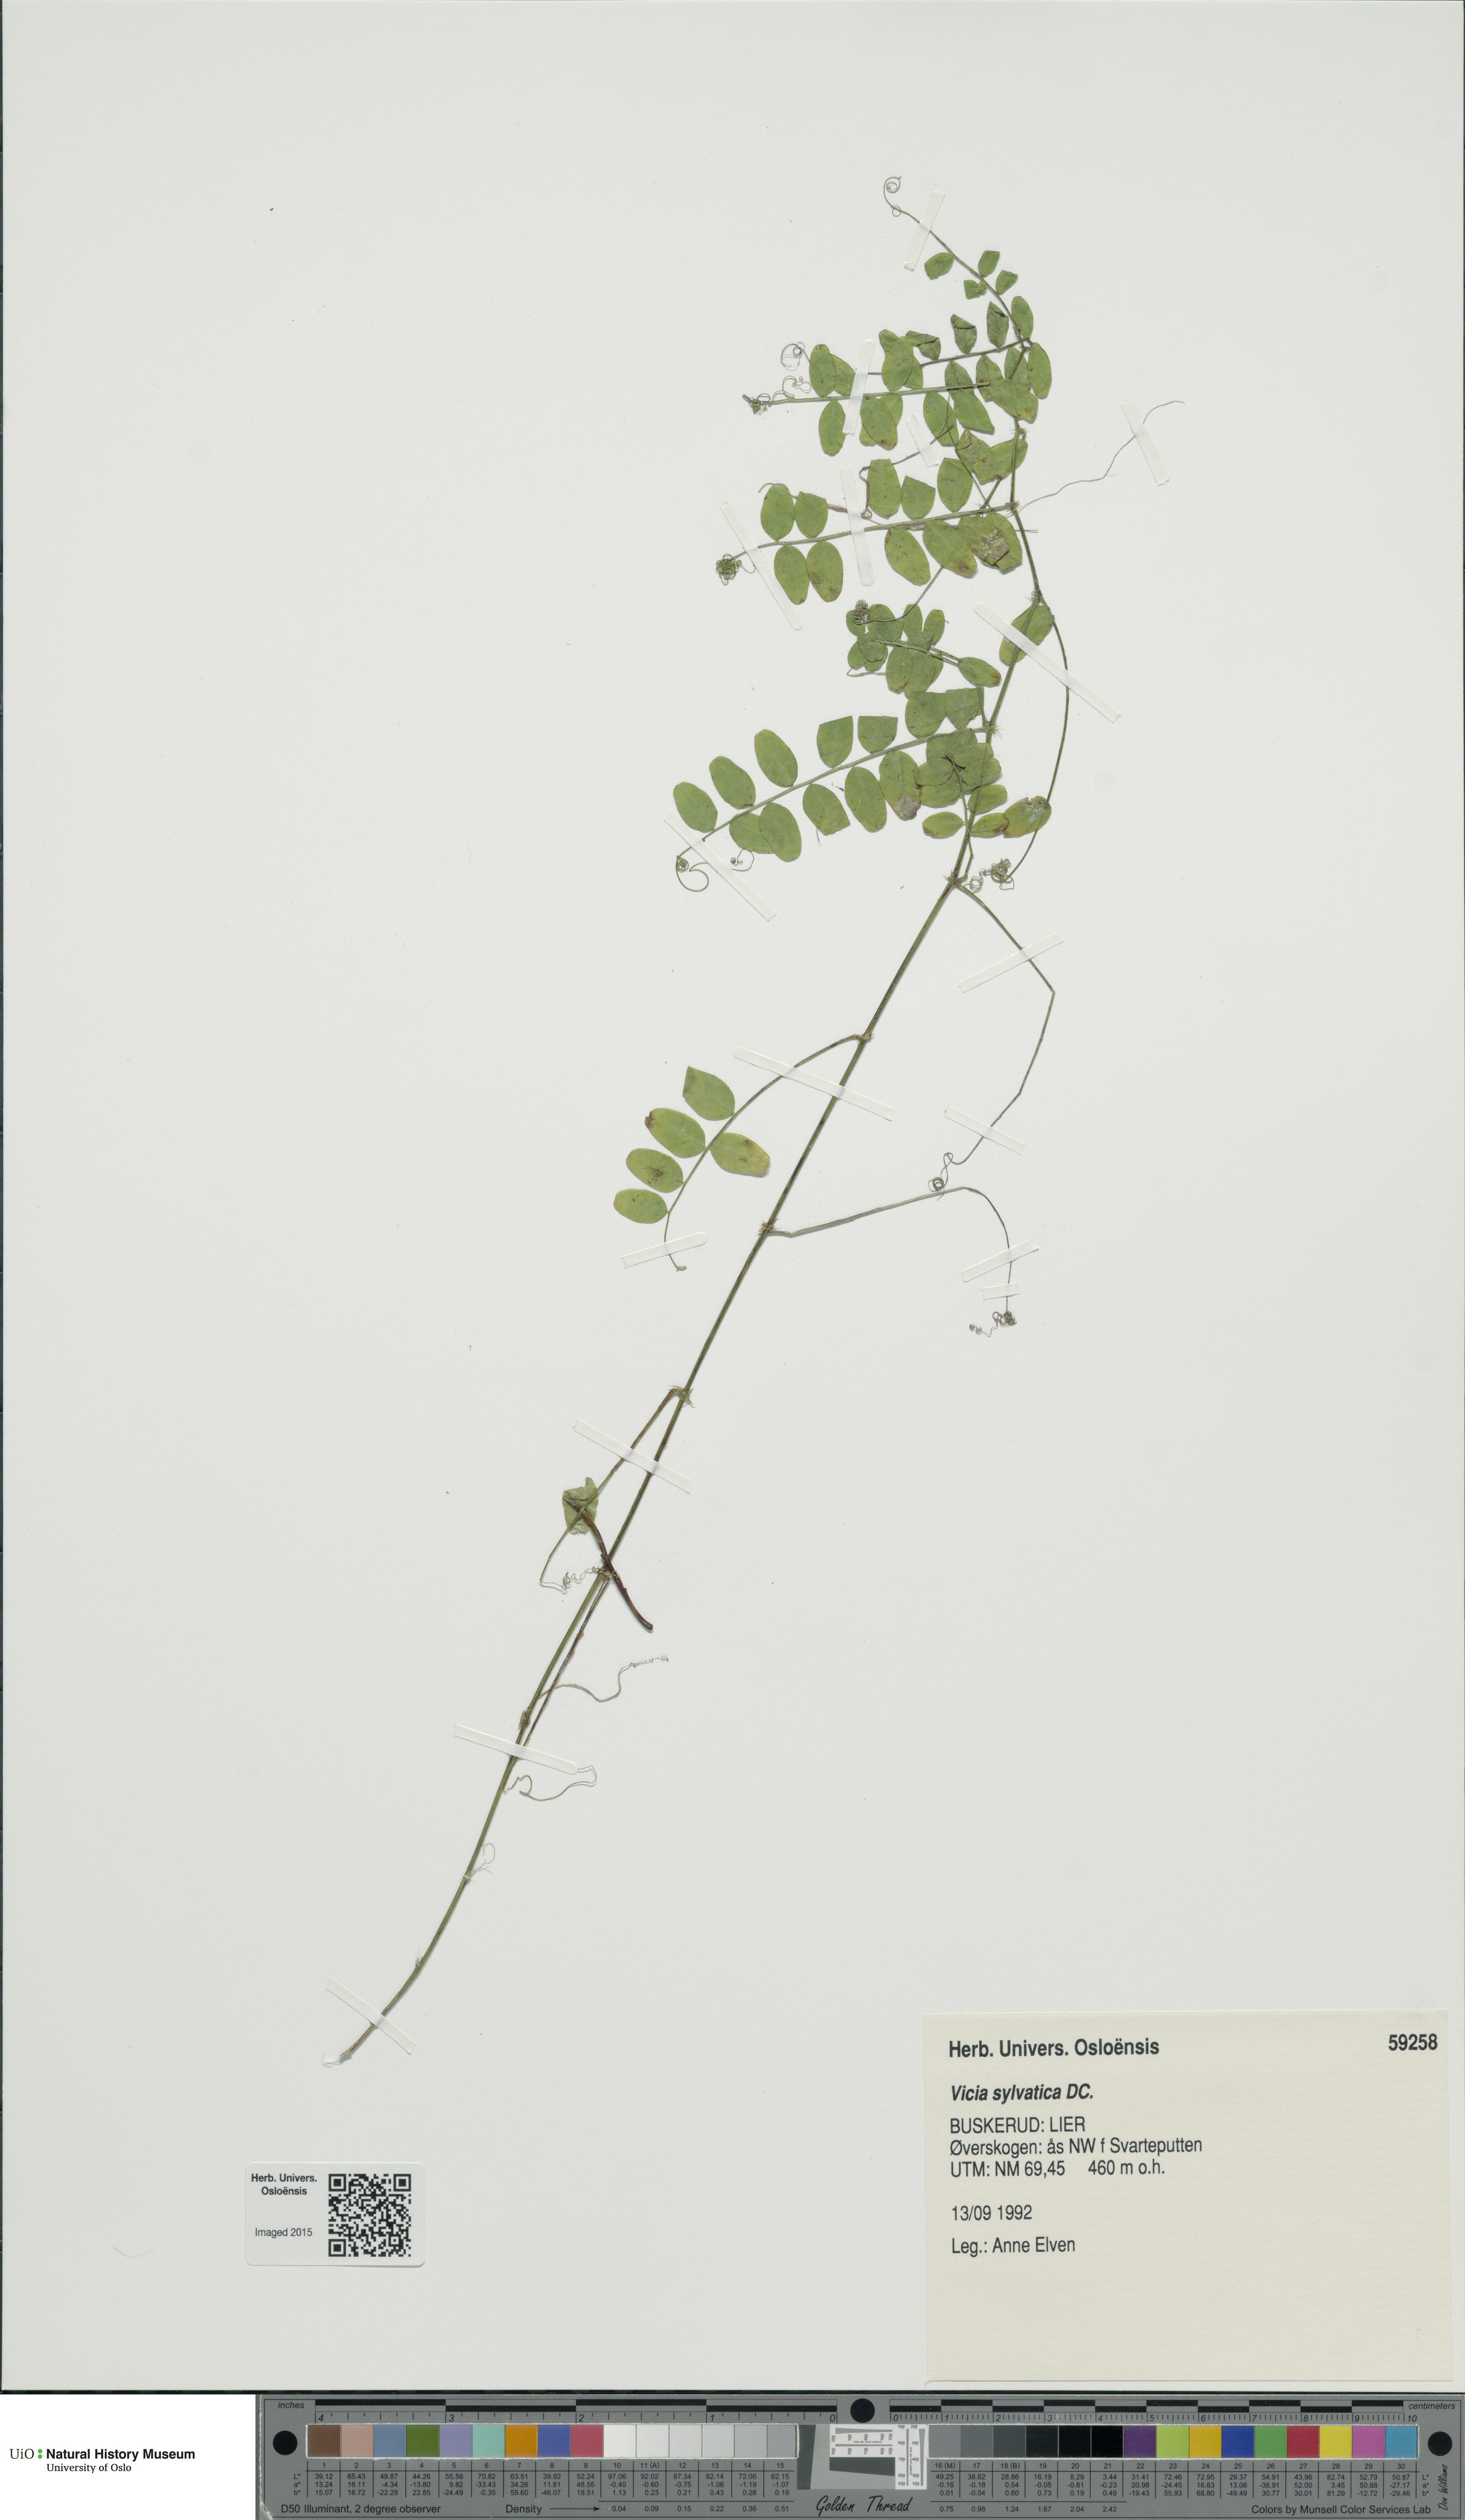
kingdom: Plantae
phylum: Tracheophyta
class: Magnoliopsida
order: Fabales
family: Fabaceae
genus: Vicia
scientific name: Vicia sylvatica
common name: Wood vetch
